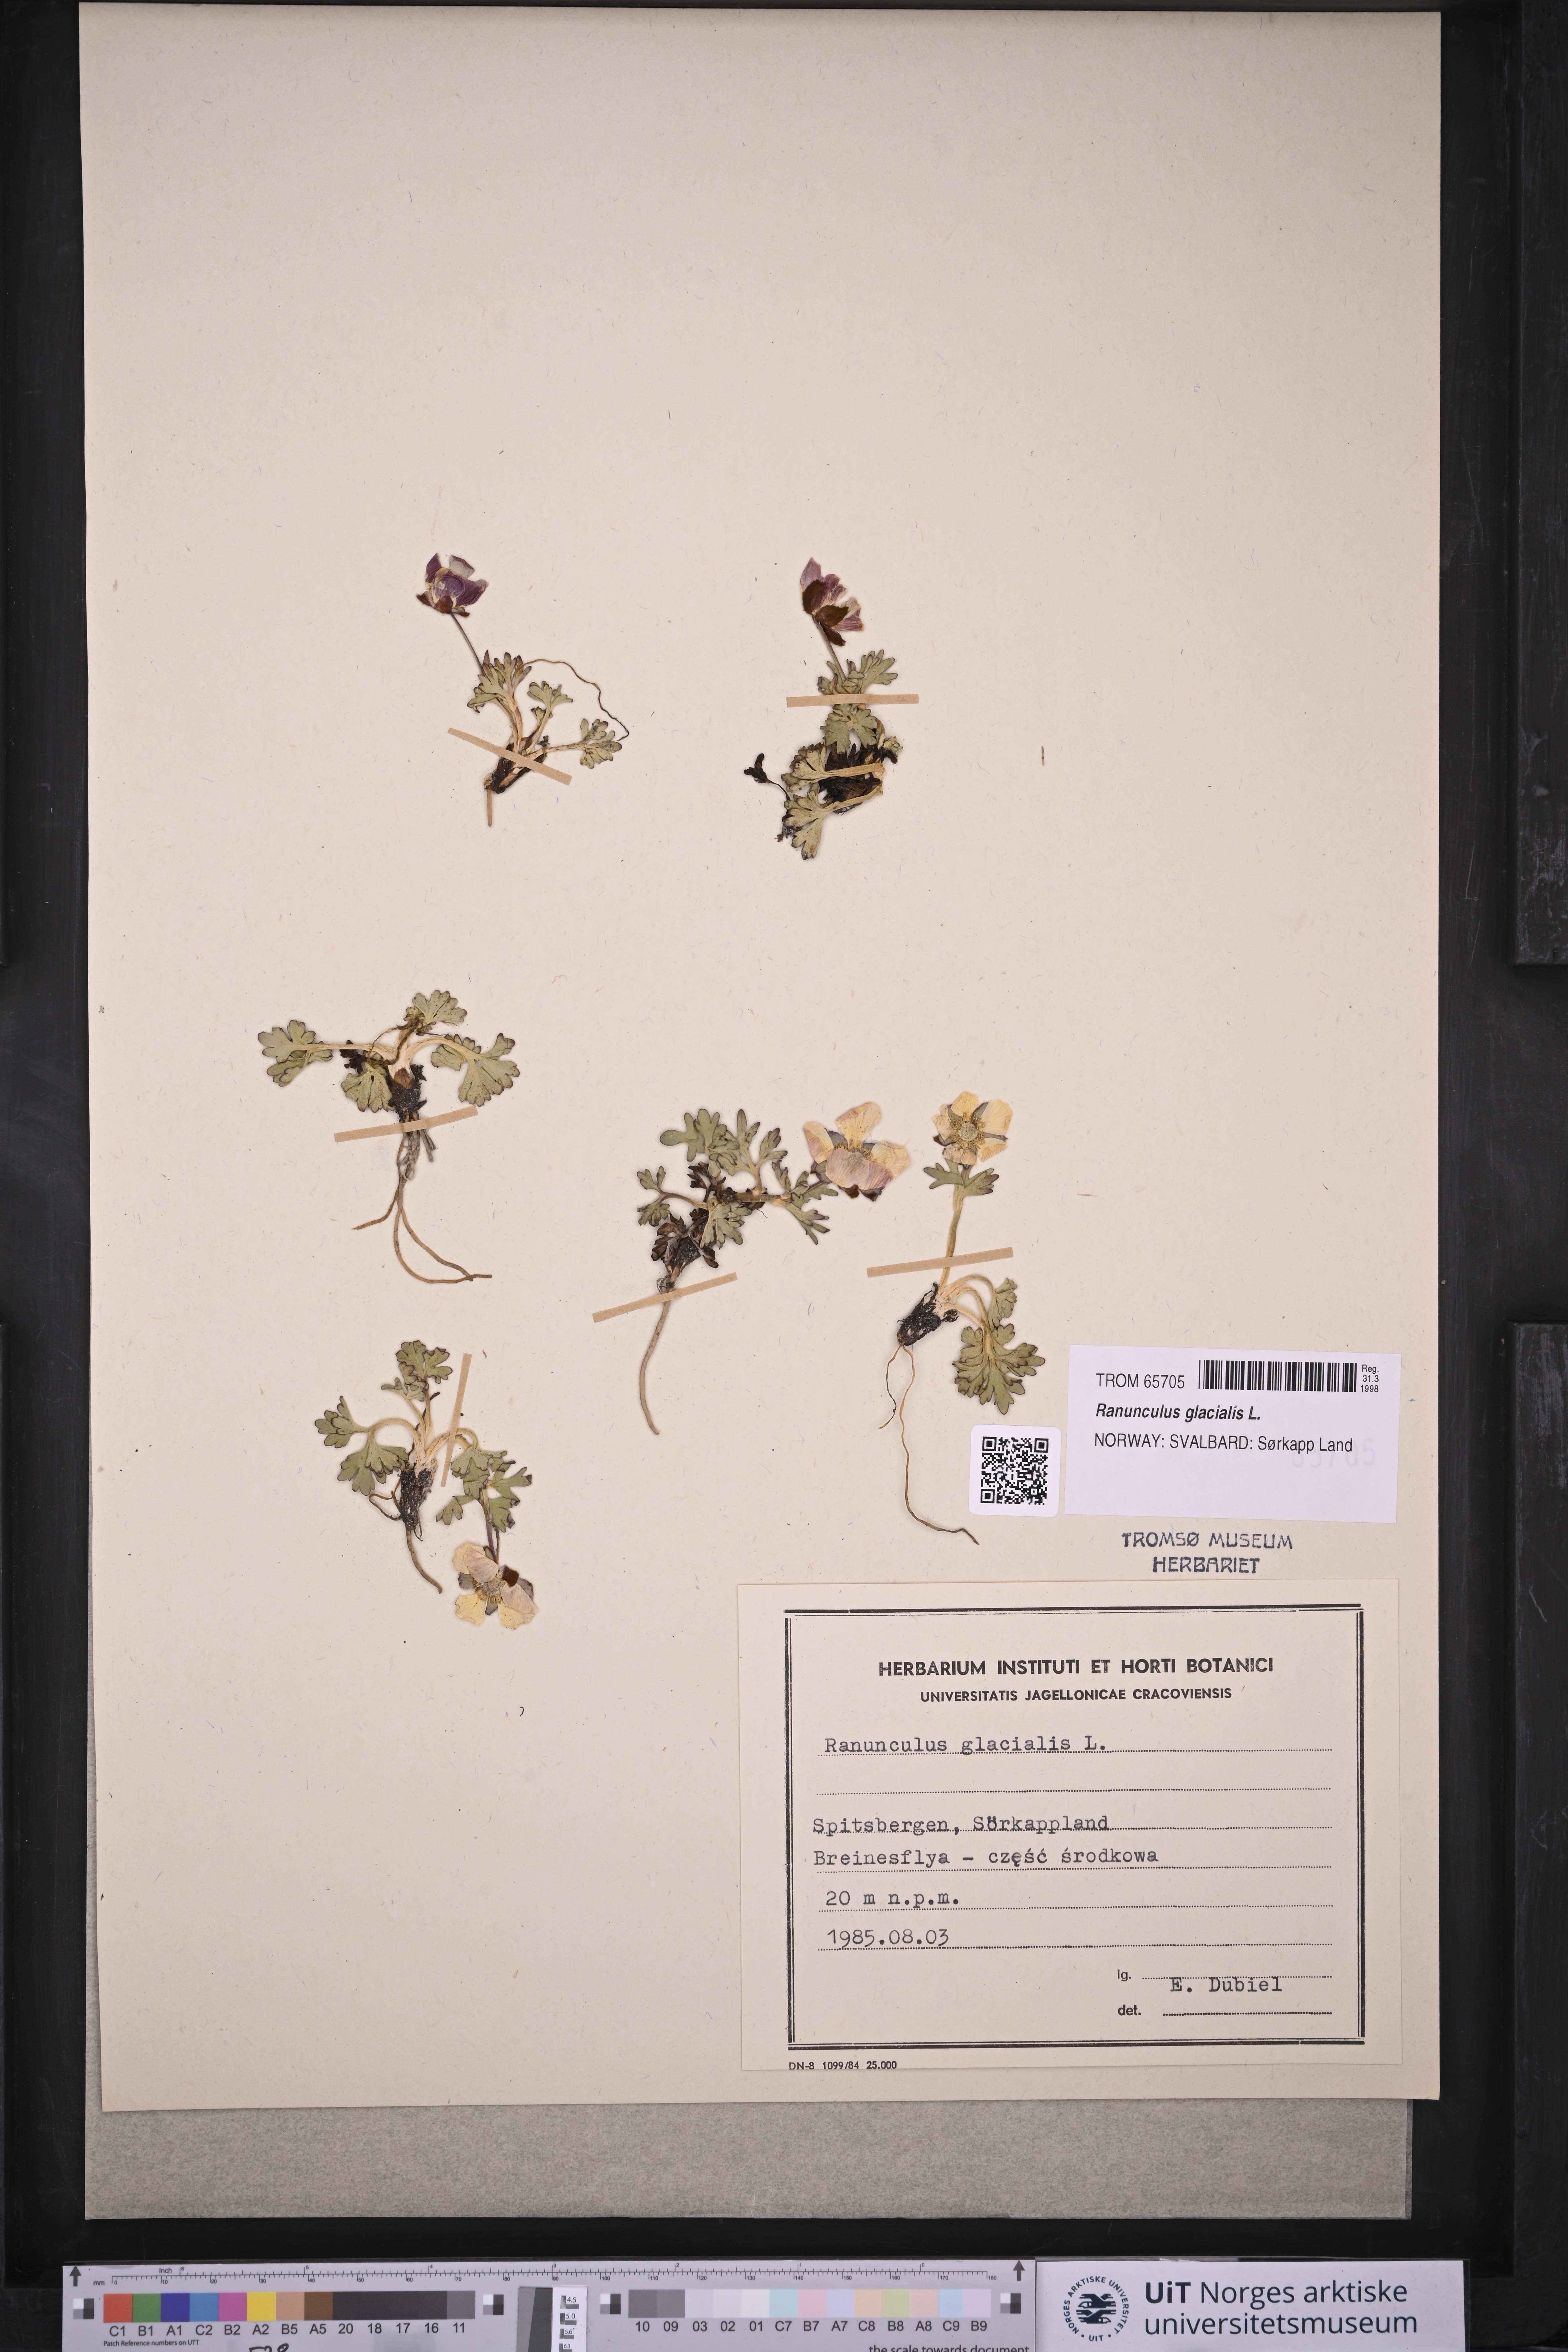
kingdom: Plantae
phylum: Tracheophyta
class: Magnoliopsida
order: Ranunculales
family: Ranunculaceae
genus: Ranunculus
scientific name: Ranunculus glacialis
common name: Glacier buttercup
